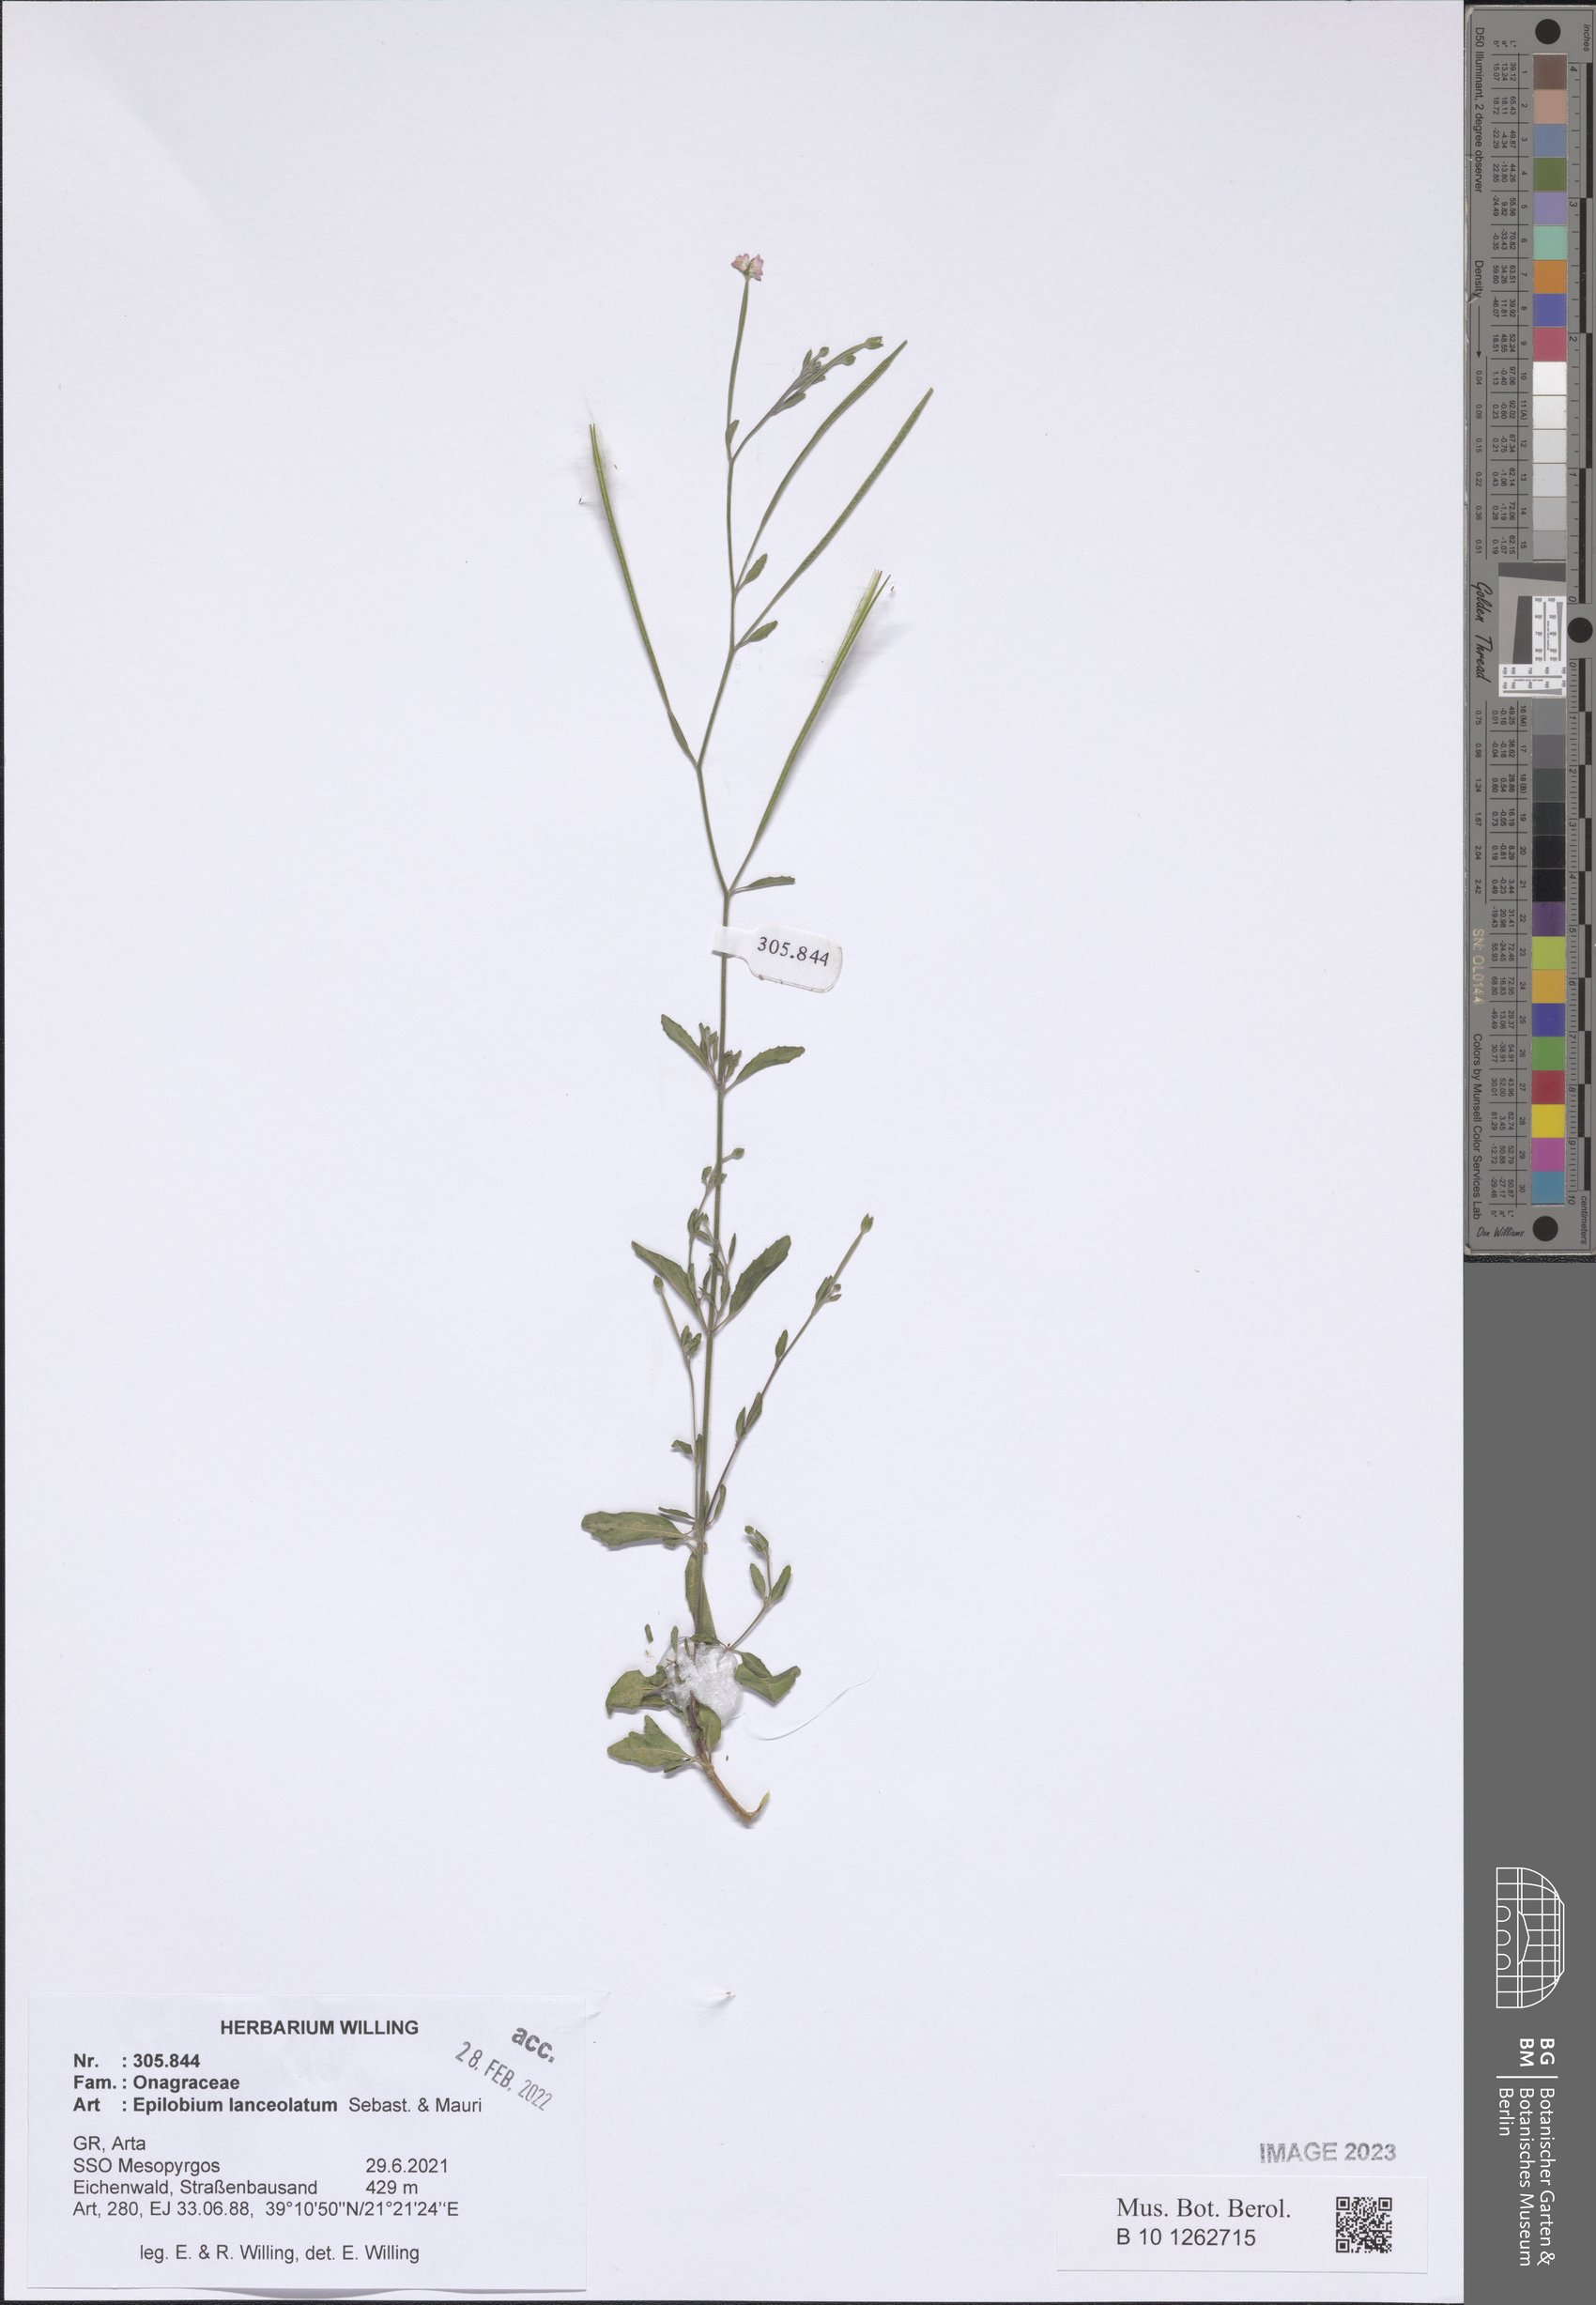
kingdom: Plantae
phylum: Tracheophyta
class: Magnoliopsida
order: Myrtales
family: Onagraceae
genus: Epilobium
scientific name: Epilobium lanceolatum
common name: Spear-leaved willowherb
